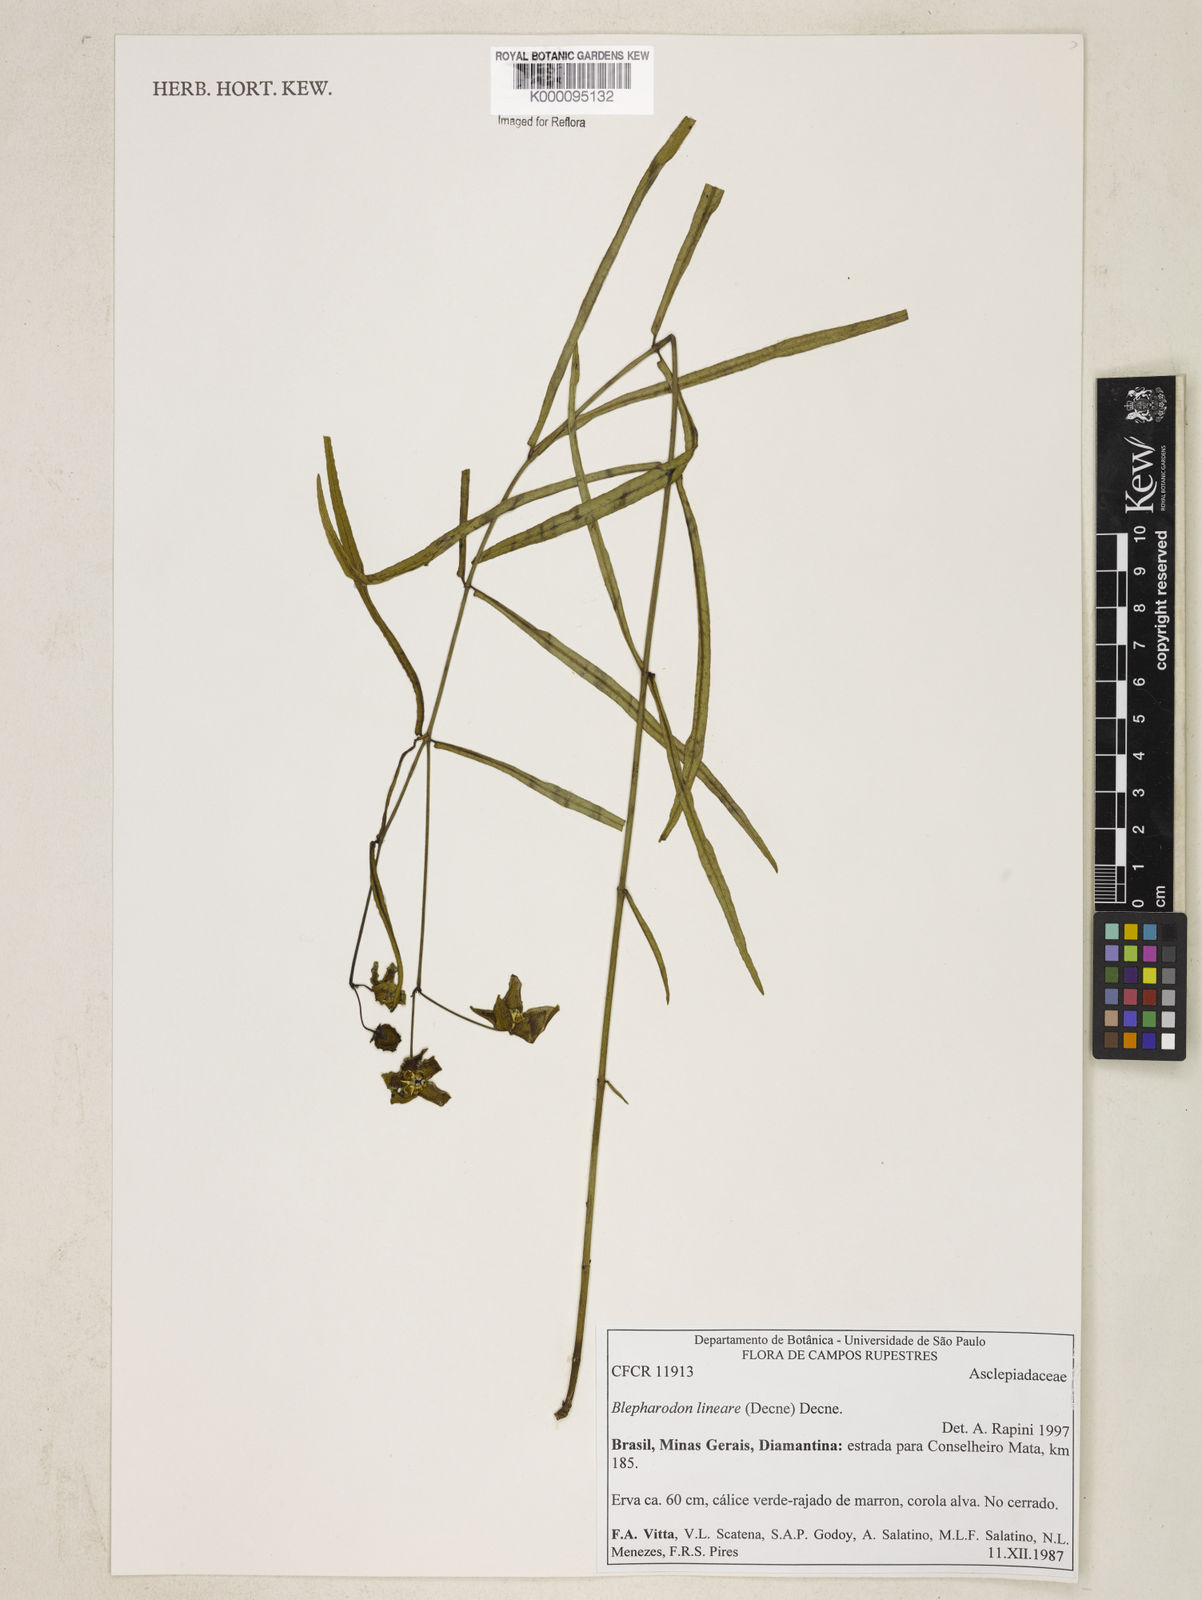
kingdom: Plantae
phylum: Tracheophyta
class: Magnoliopsida
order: Gentianales
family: Apocynaceae
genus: Blepharodon
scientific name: Blepharodon lineare
